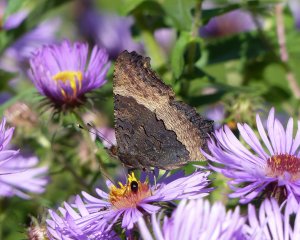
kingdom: Animalia
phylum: Arthropoda
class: Insecta
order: Lepidoptera
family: Nymphalidae
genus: Aglais
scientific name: Aglais milberti
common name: Milbert's Tortoiseshell
